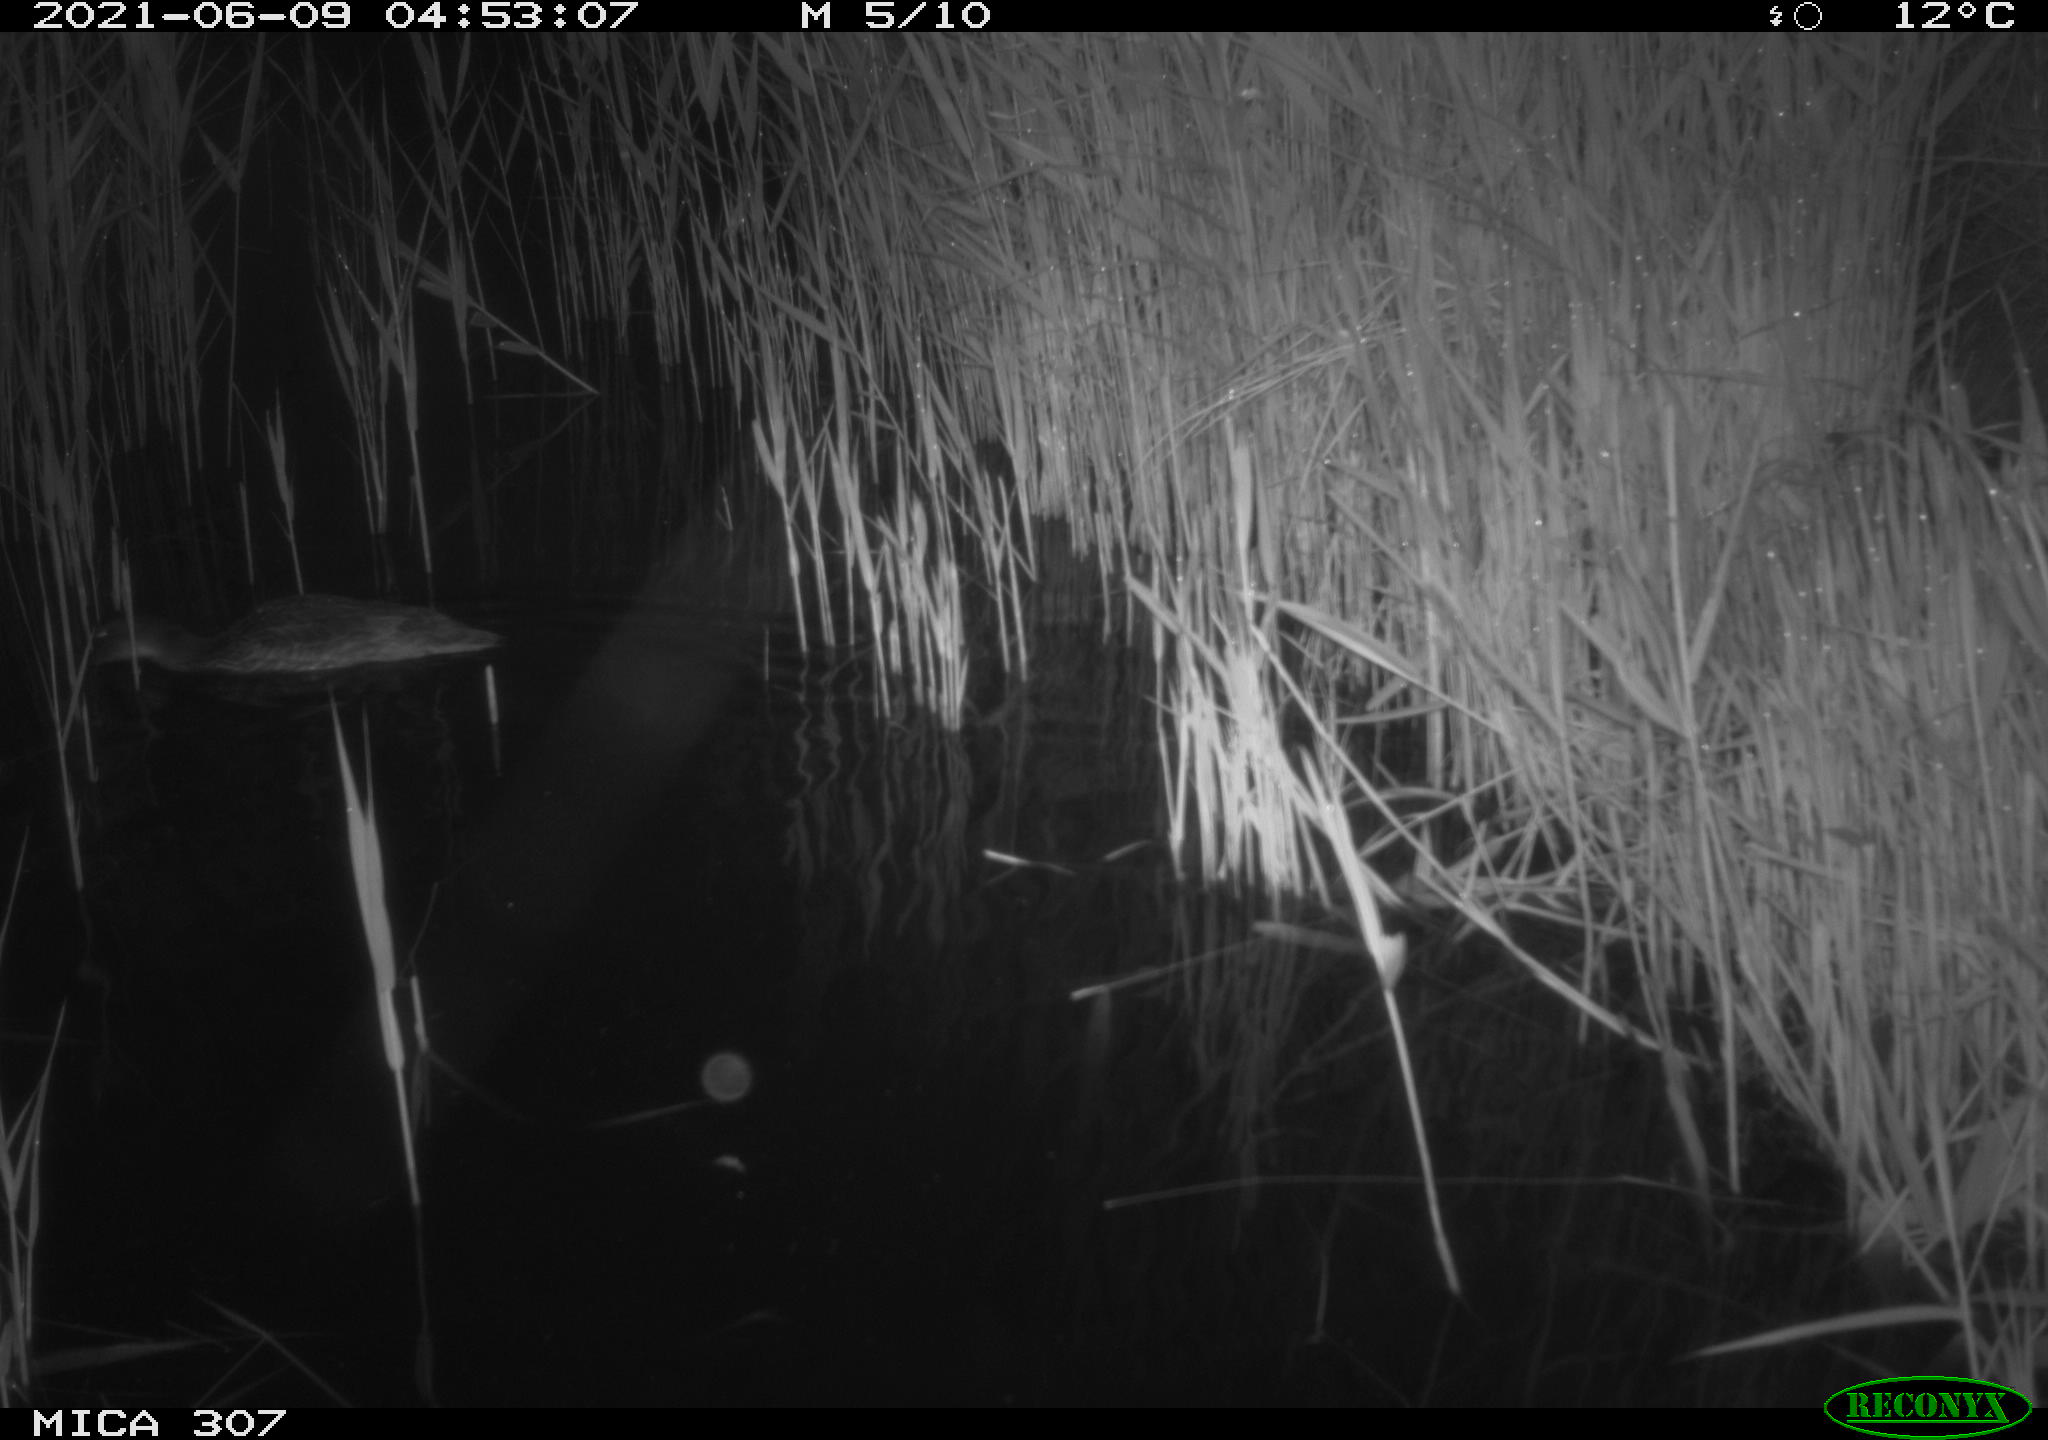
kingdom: Animalia
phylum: Chordata
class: Aves
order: Gruiformes
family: Rallidae
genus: Fulica
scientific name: Fulica atra
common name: Eurasian coot
